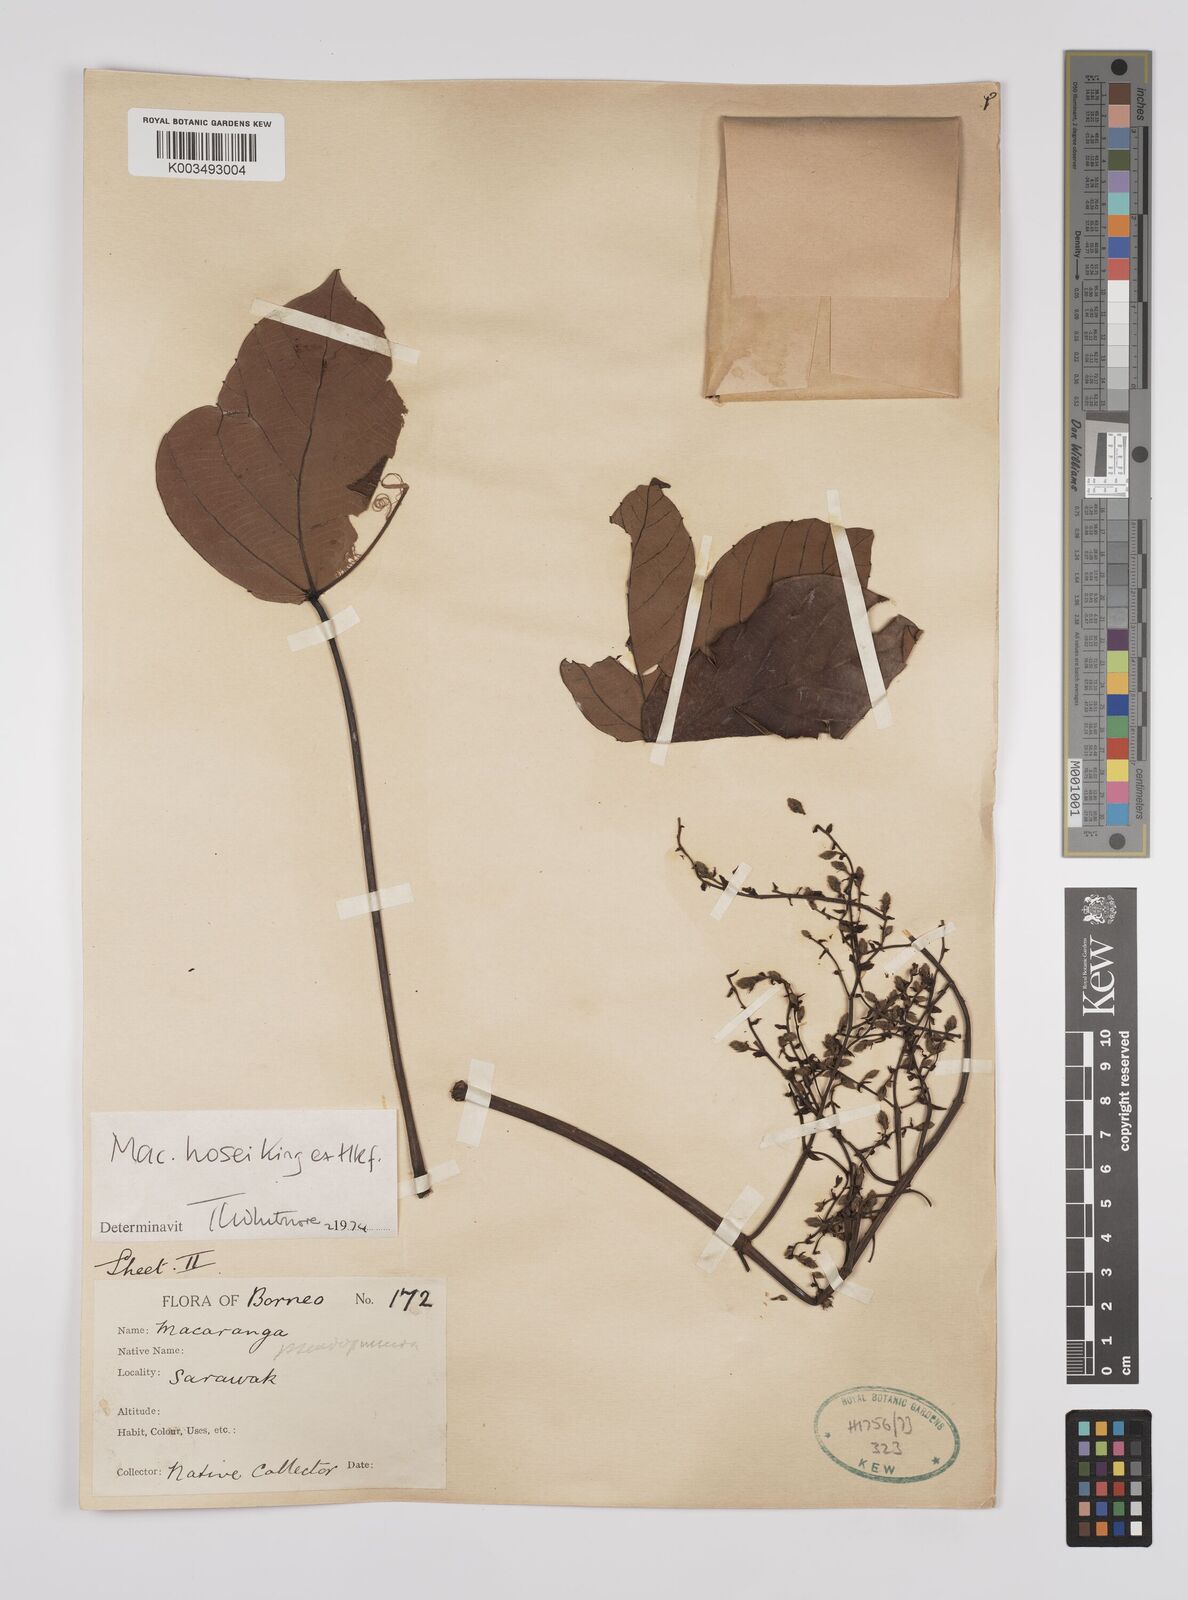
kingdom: Plantae
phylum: Tracheophyta
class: Magnoliopsida
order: Malpighiales
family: Euphorbiaceae
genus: Macaranga
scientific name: Macaranga hosei
